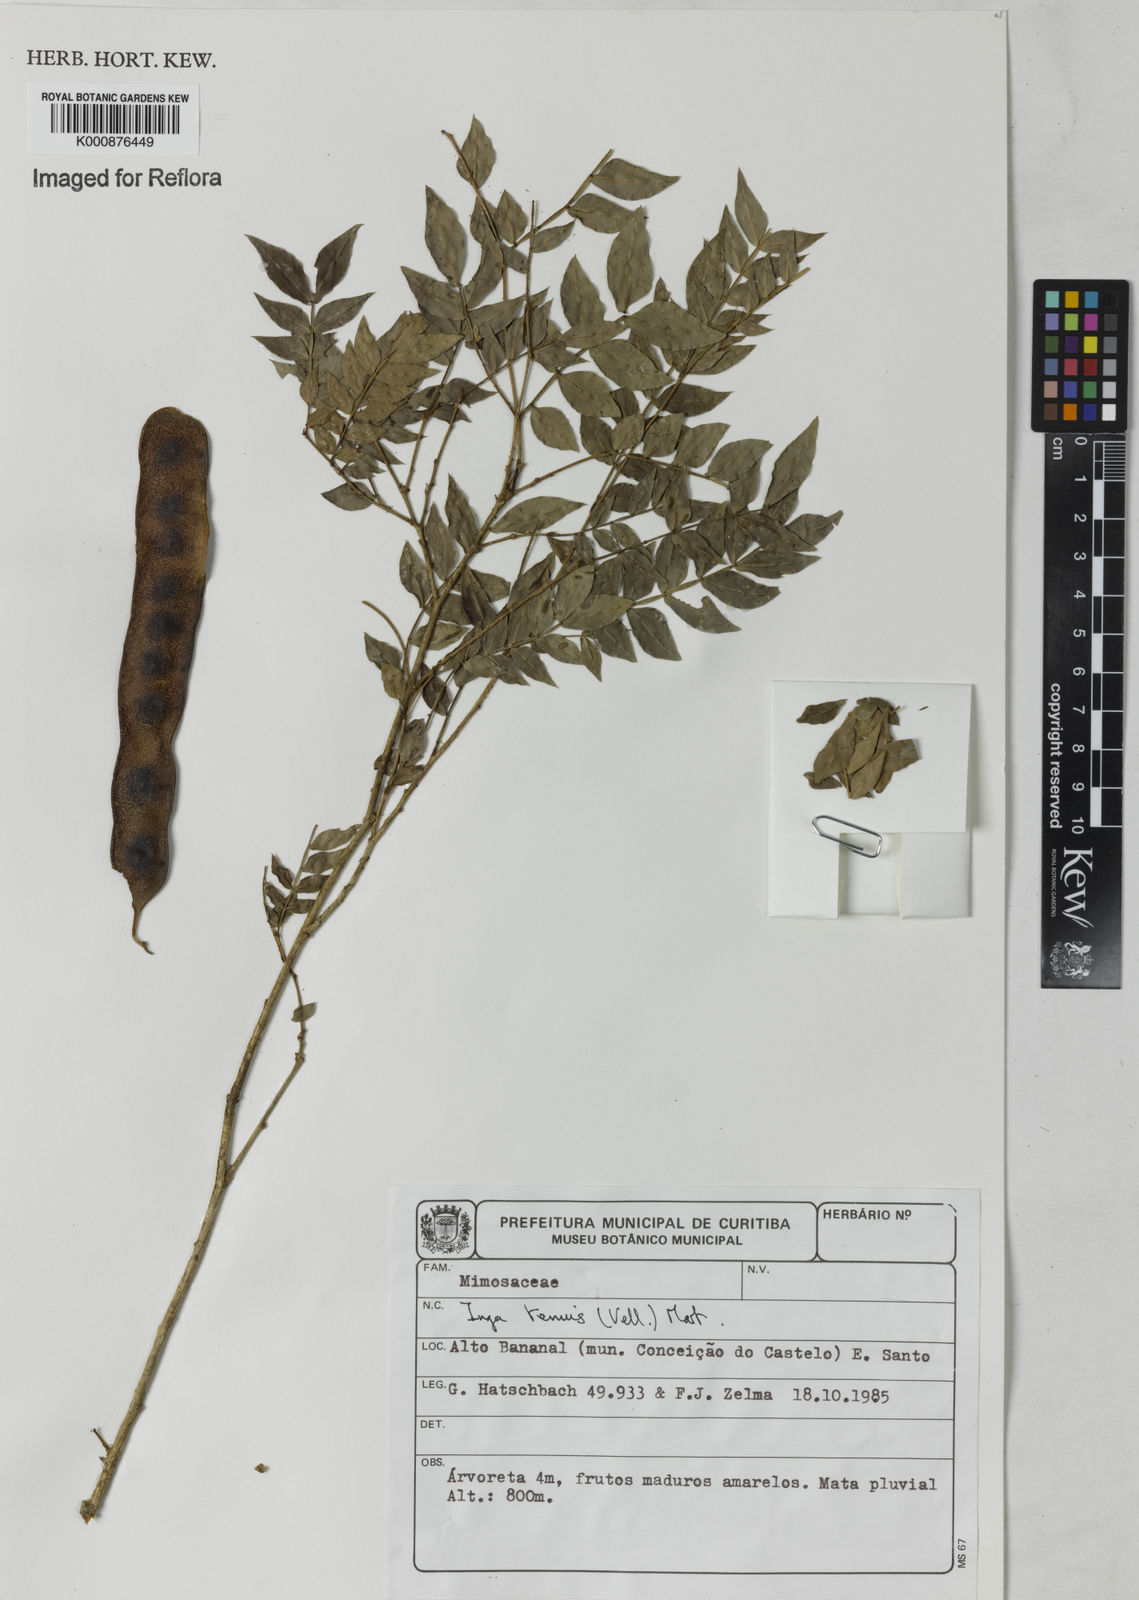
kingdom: Plantae
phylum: Tracheophyta
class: Magnoliopsida
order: Fabales
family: Fabaceae
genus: Inga
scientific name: Inga tenuis
